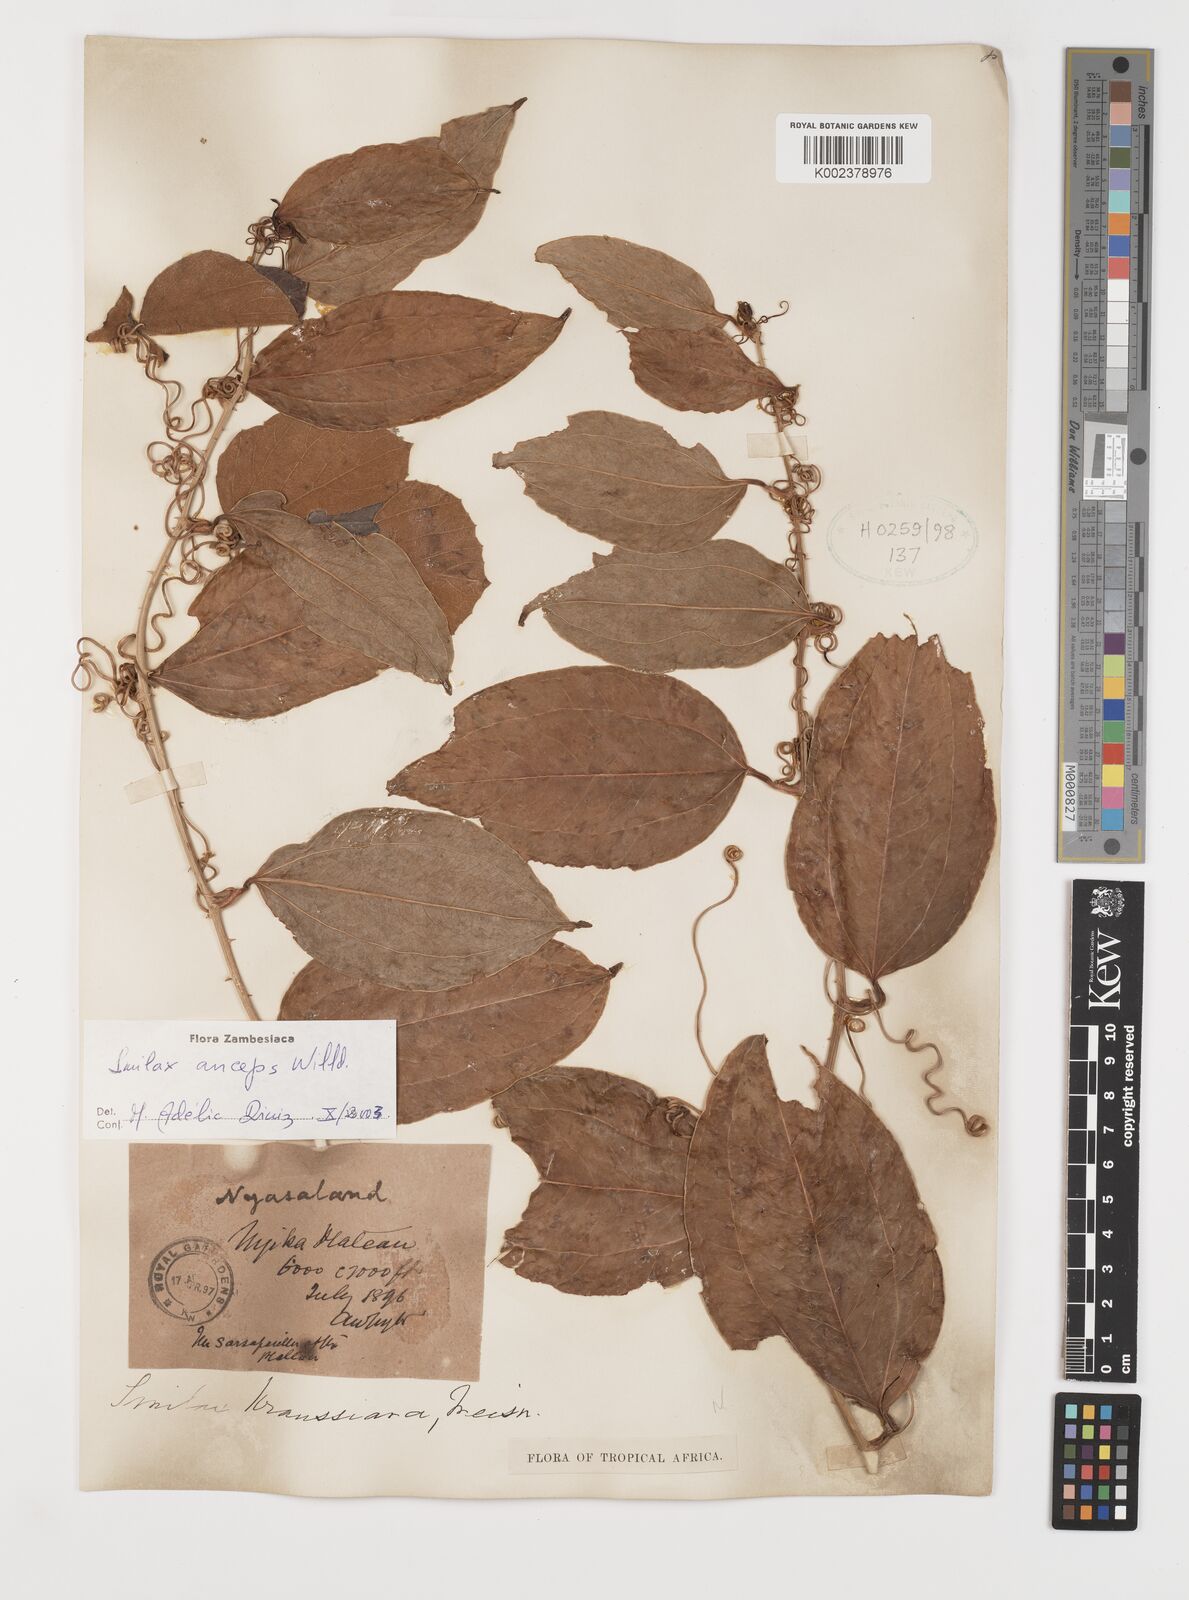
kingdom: Plantae
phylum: Tracheophyta
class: Liliopsida
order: Liliales
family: Smilacaceae
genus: Smilax
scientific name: Smilax anceps
